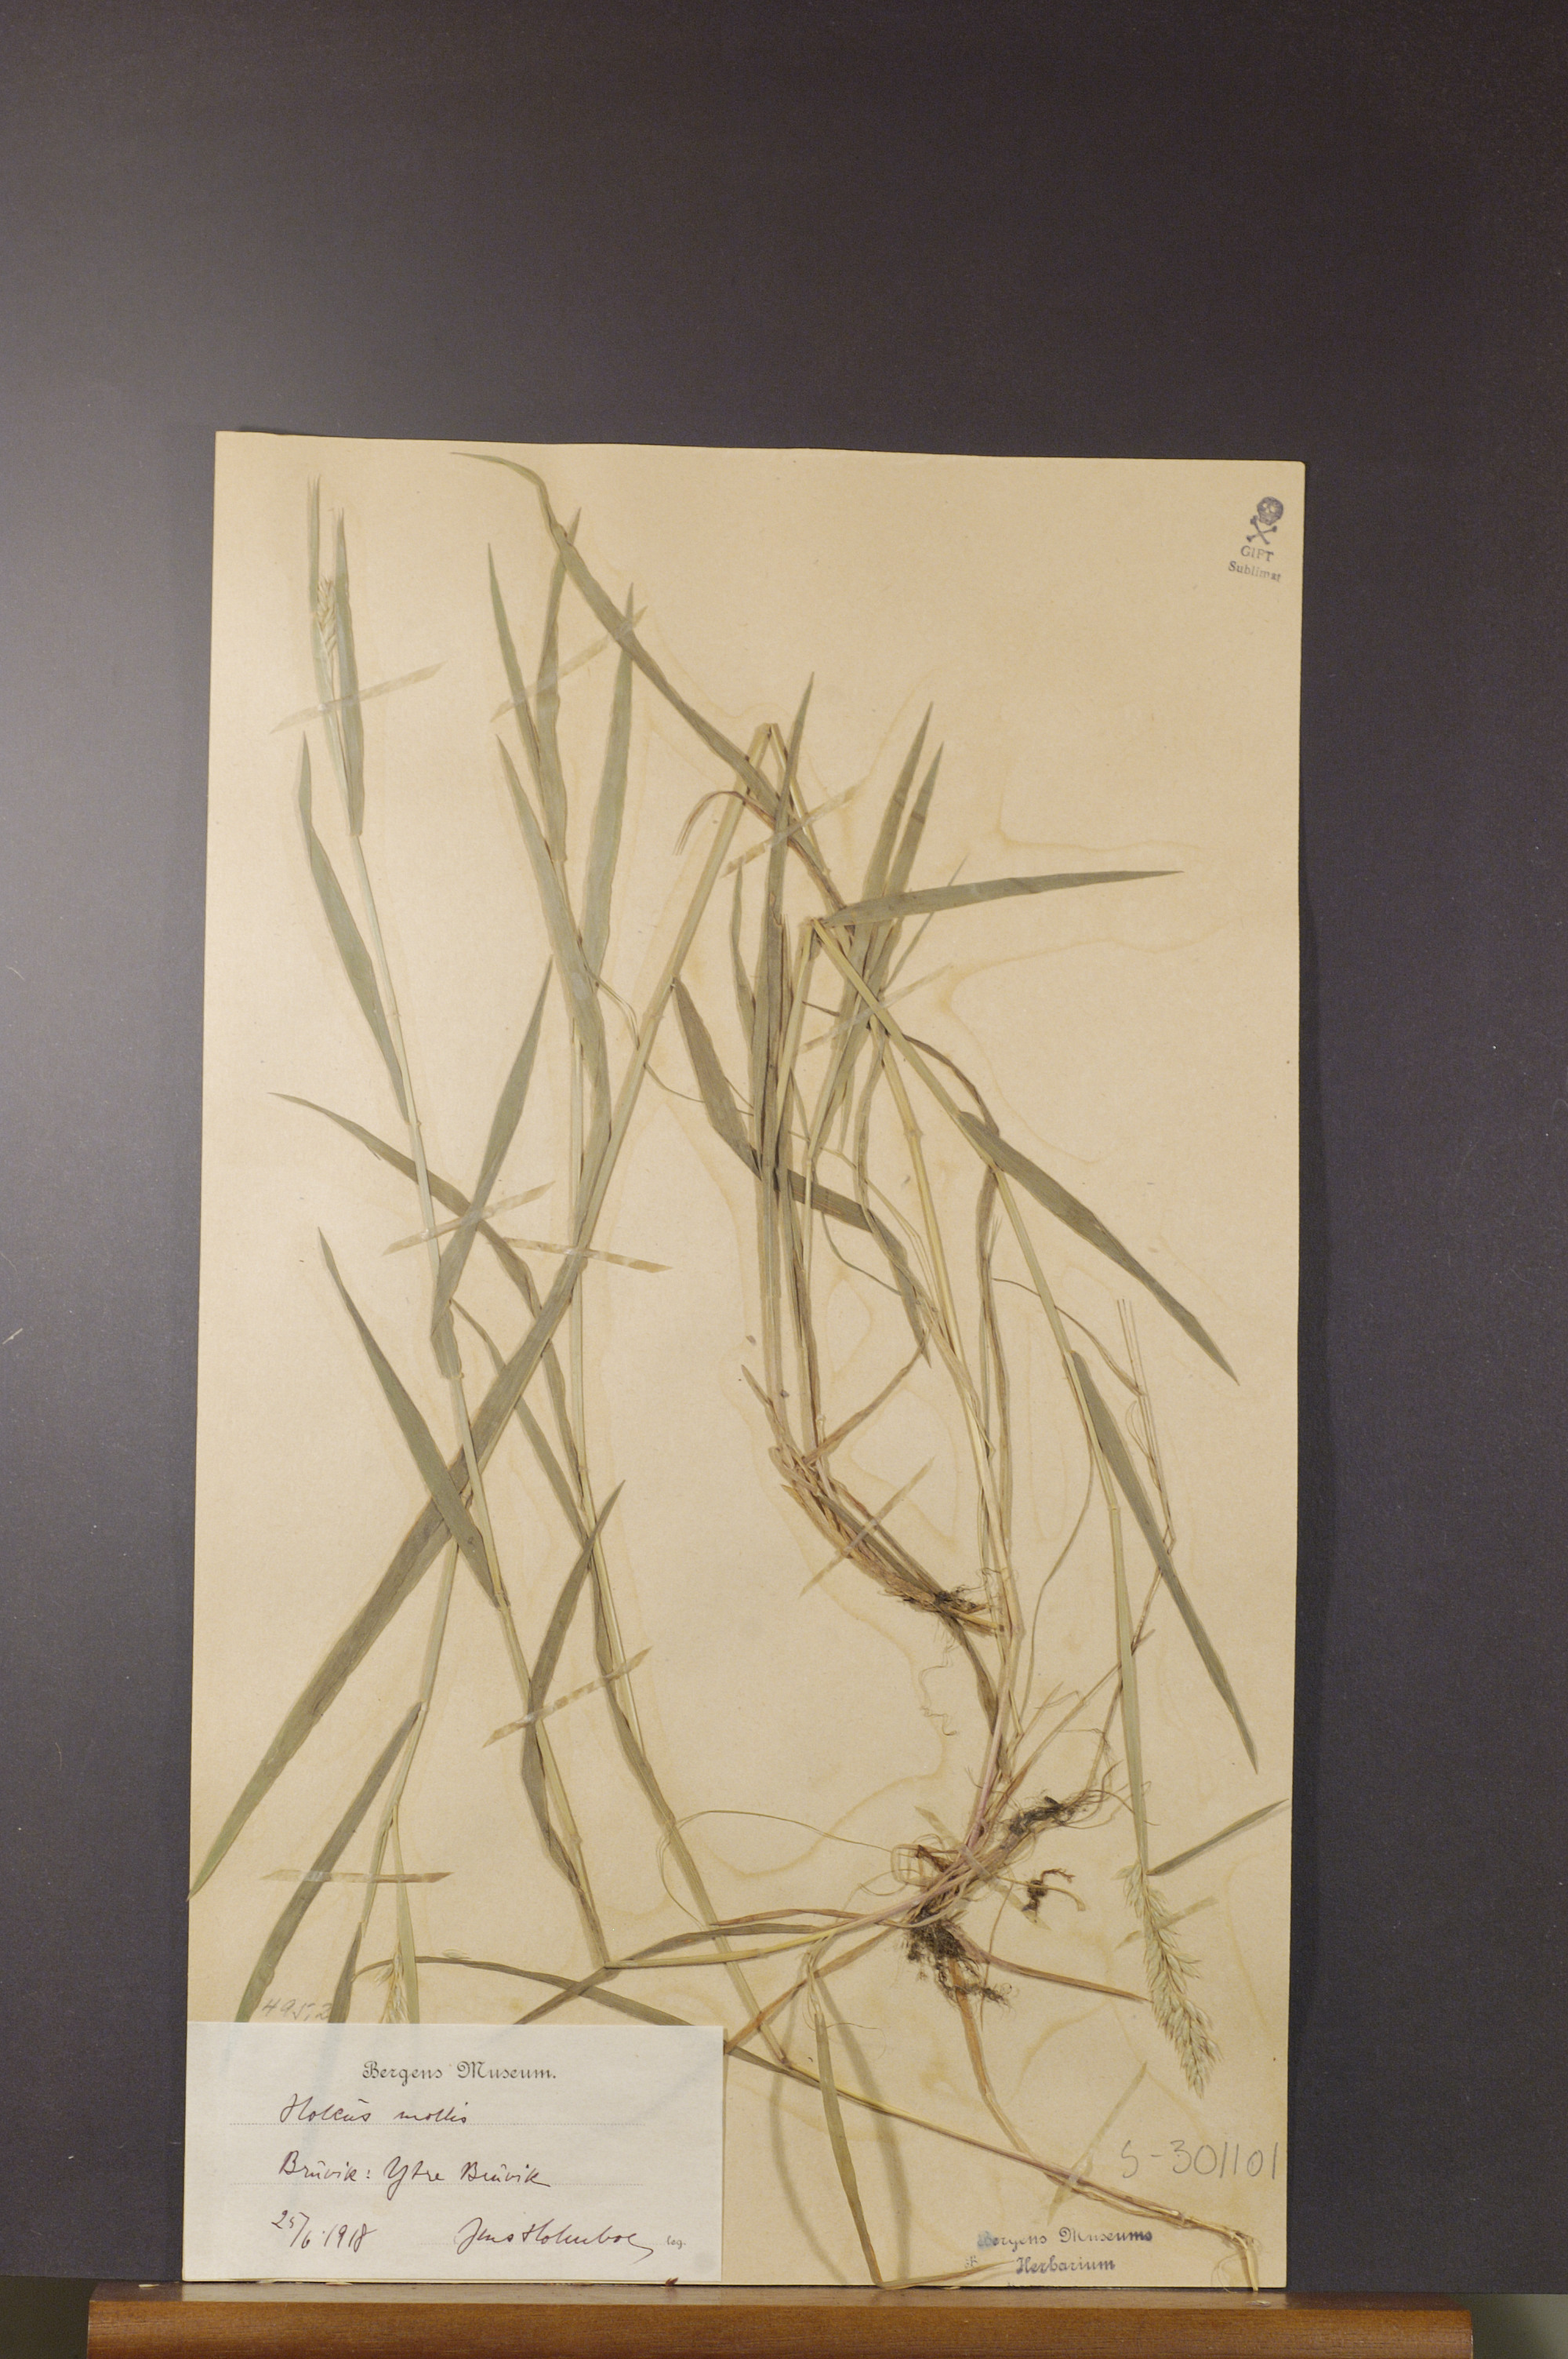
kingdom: Plantae
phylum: Tracheophyta
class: Liliopsida
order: Poales
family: Poaceae
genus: Holcus
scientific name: Holcus mollis
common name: Creeping velvetgrass
